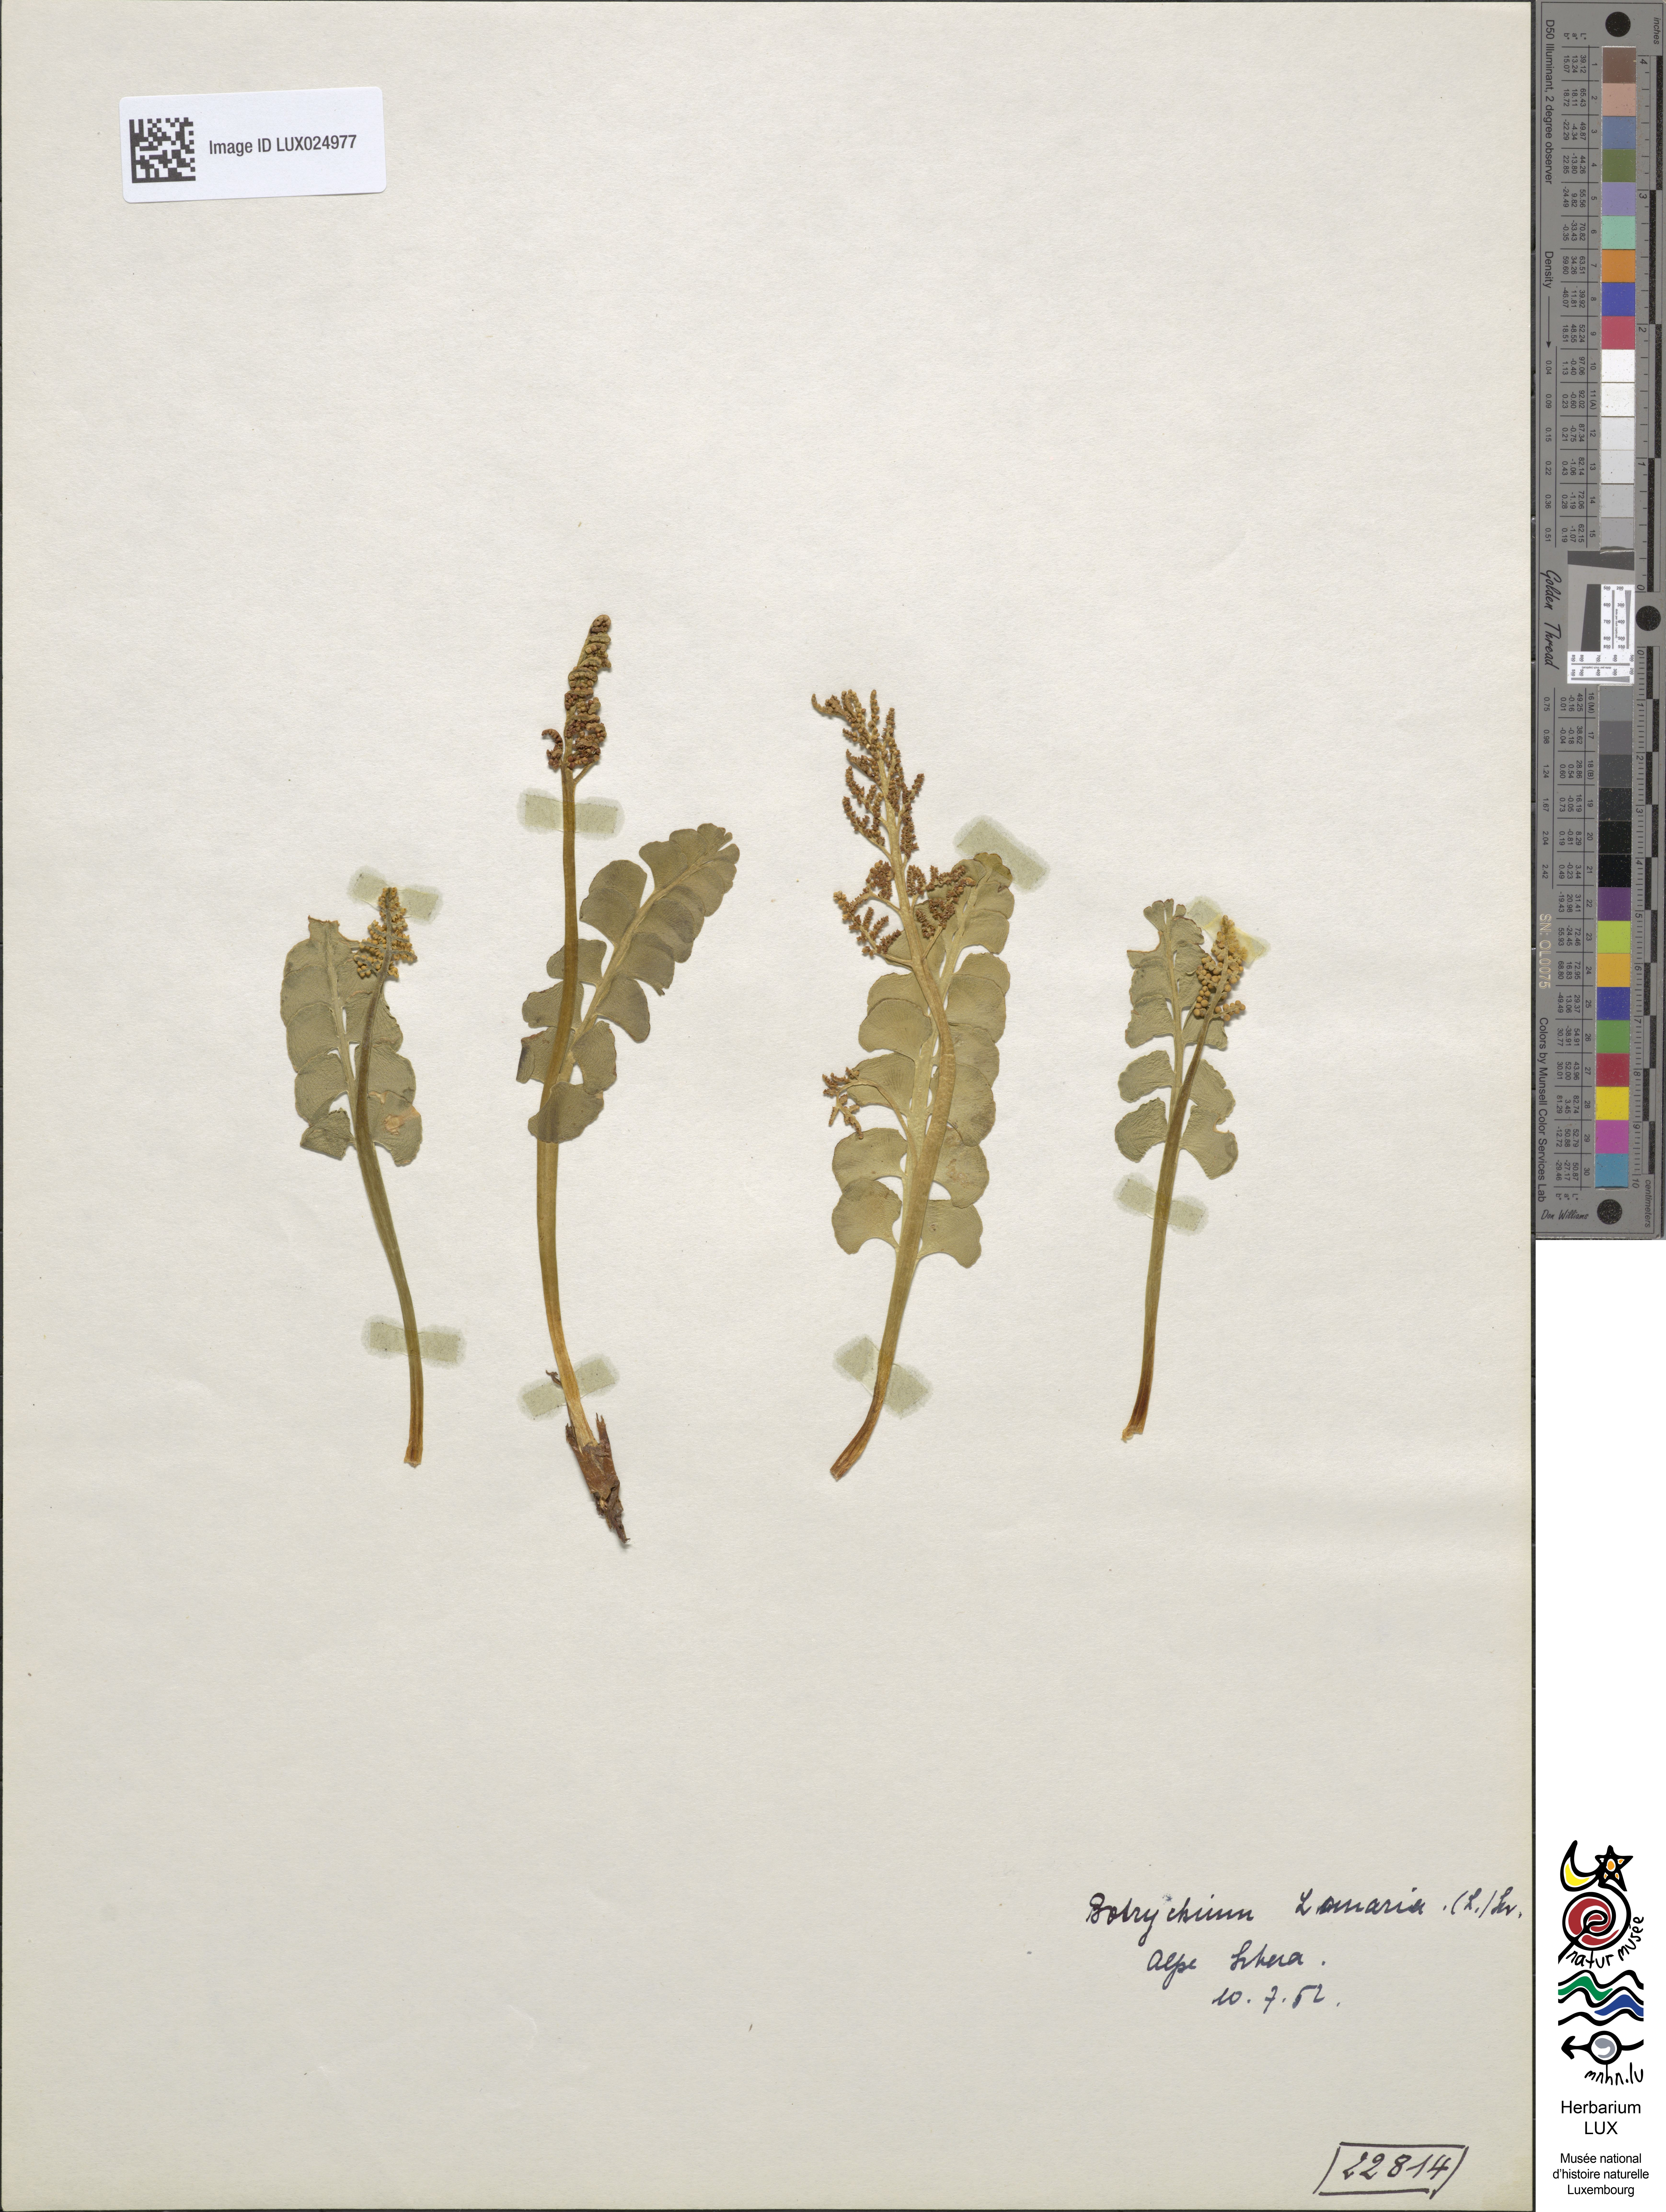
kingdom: Plantae
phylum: Tracheophyta
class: Polypodiopsida
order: Ophioglossales
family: Ophioglossaceae
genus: Botrychium
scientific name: Botrychium lunaria
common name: Moonwort
